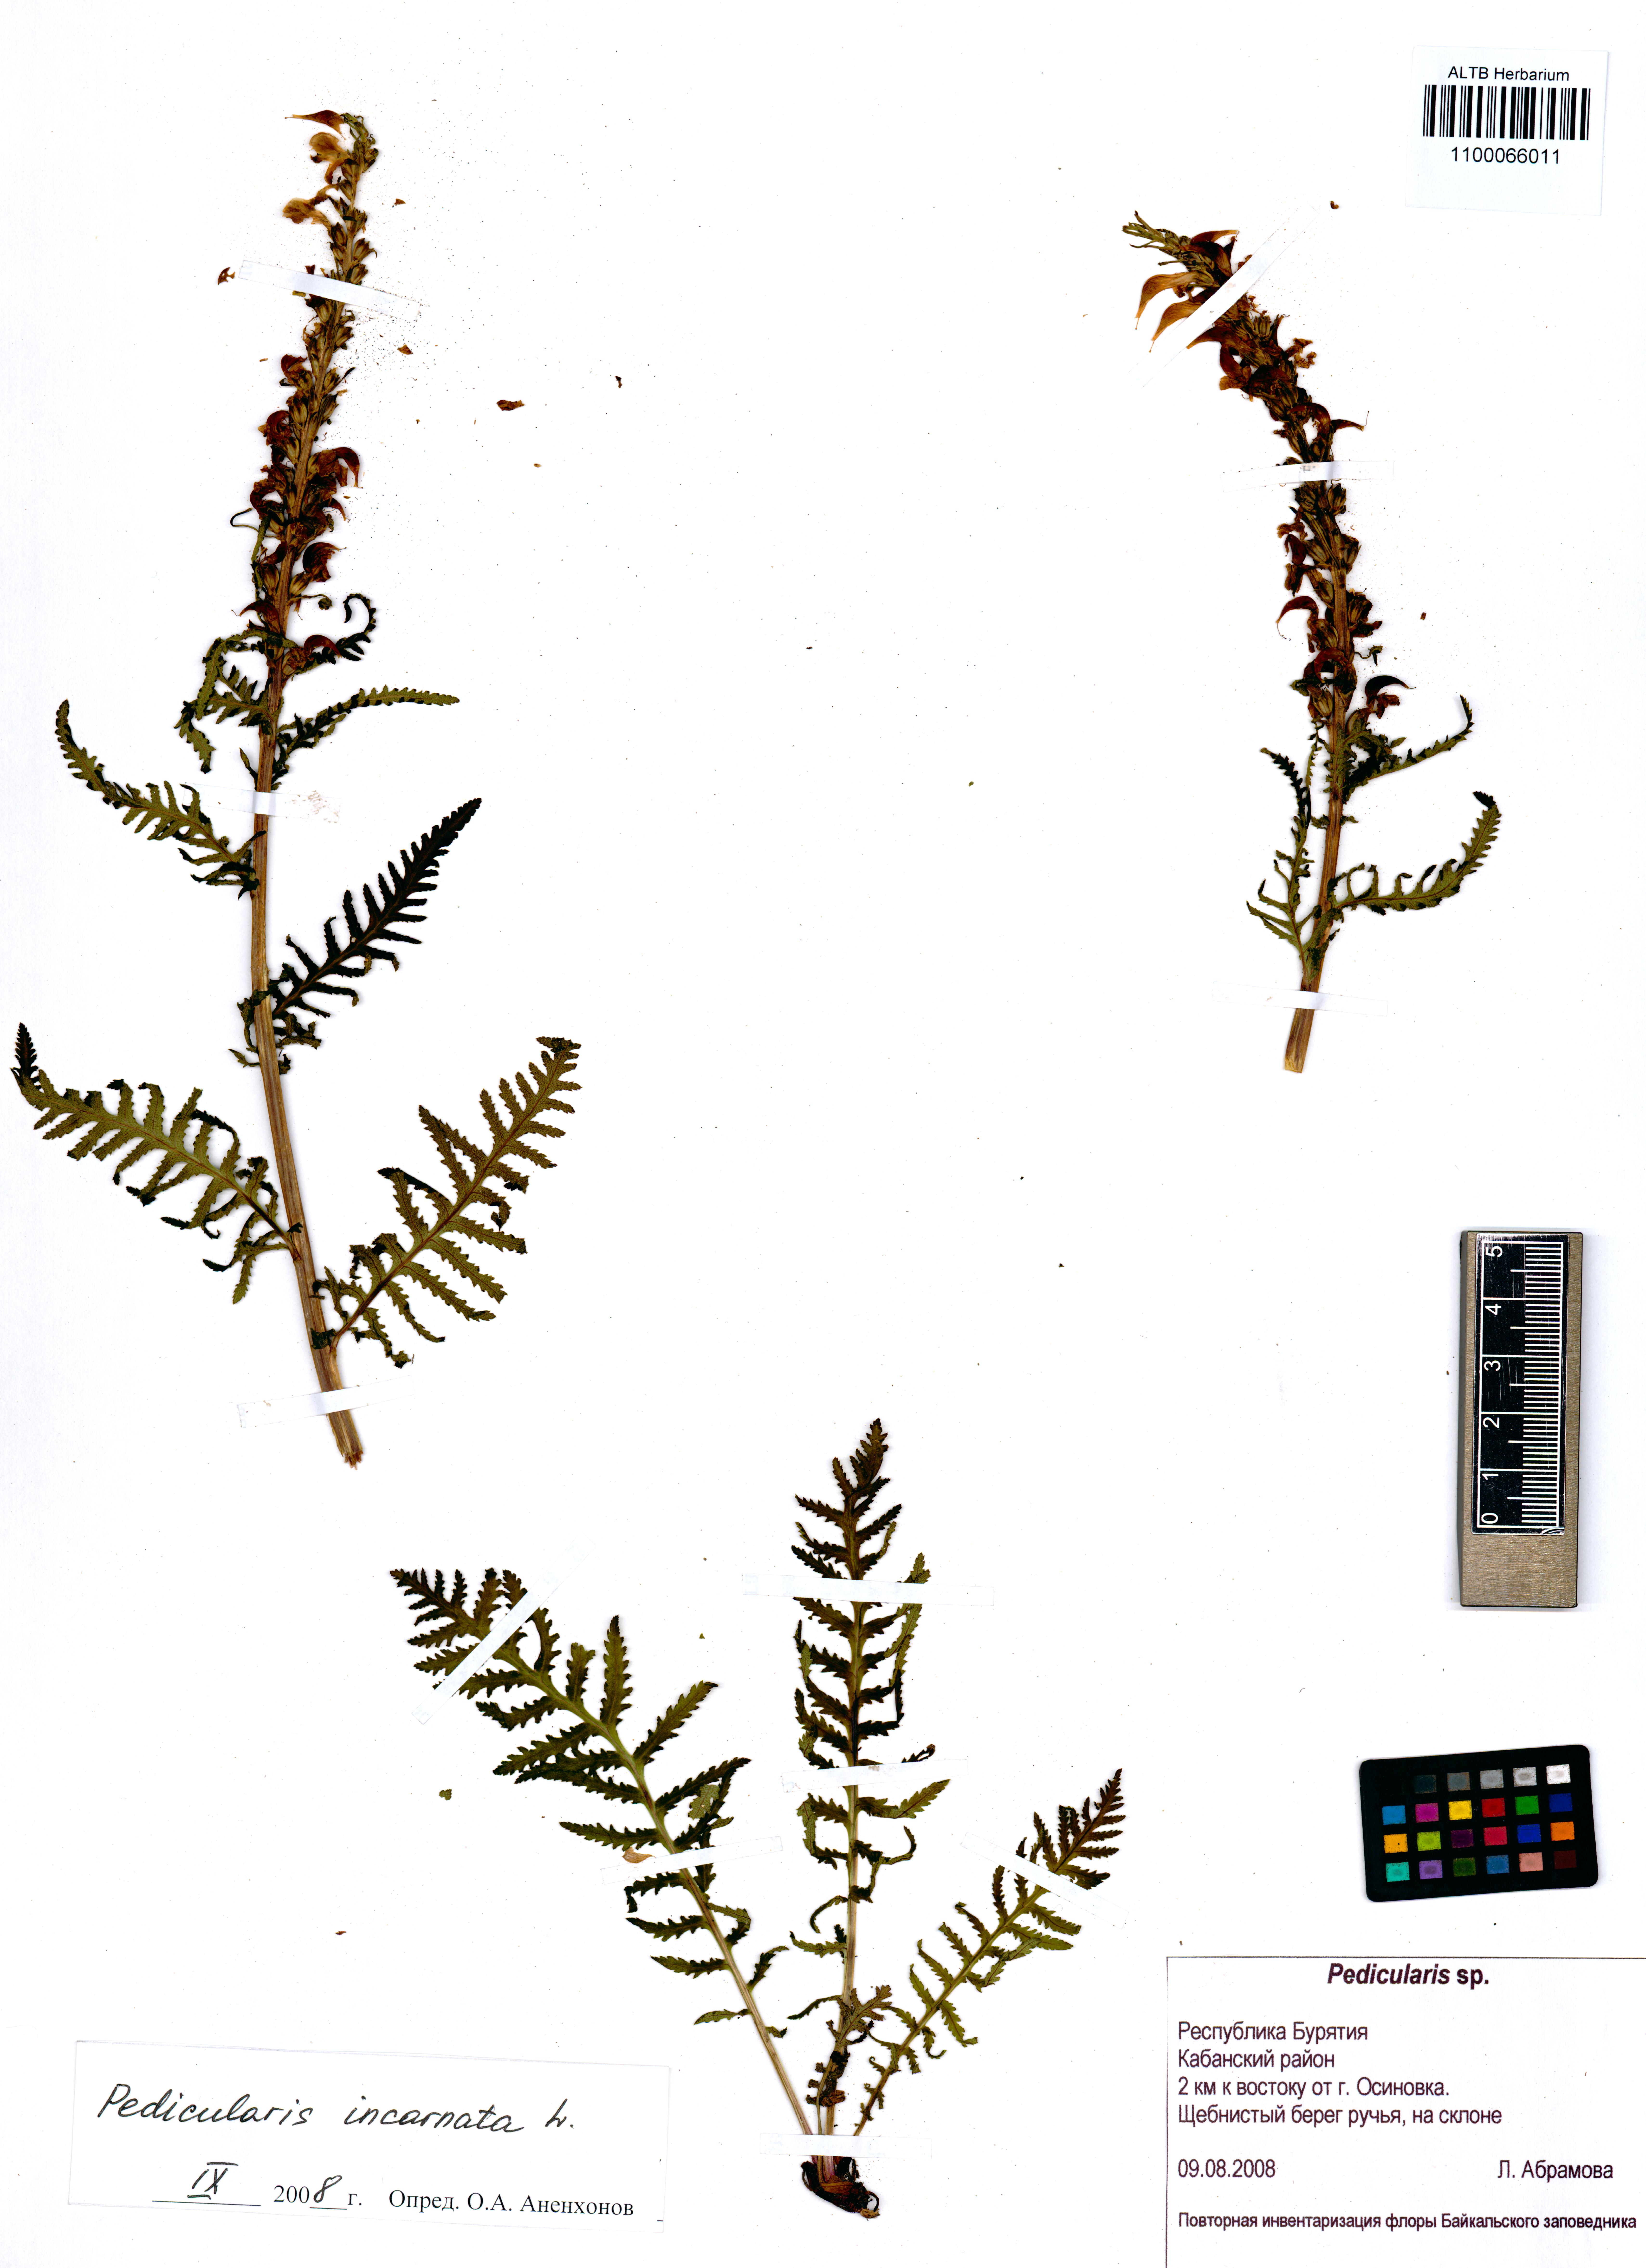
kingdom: Plantae
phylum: Tracheophyta
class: Magnoliopsida
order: Lamiales
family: Orobanchaceae
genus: Pedicularis
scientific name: Pedicularis incarnata
